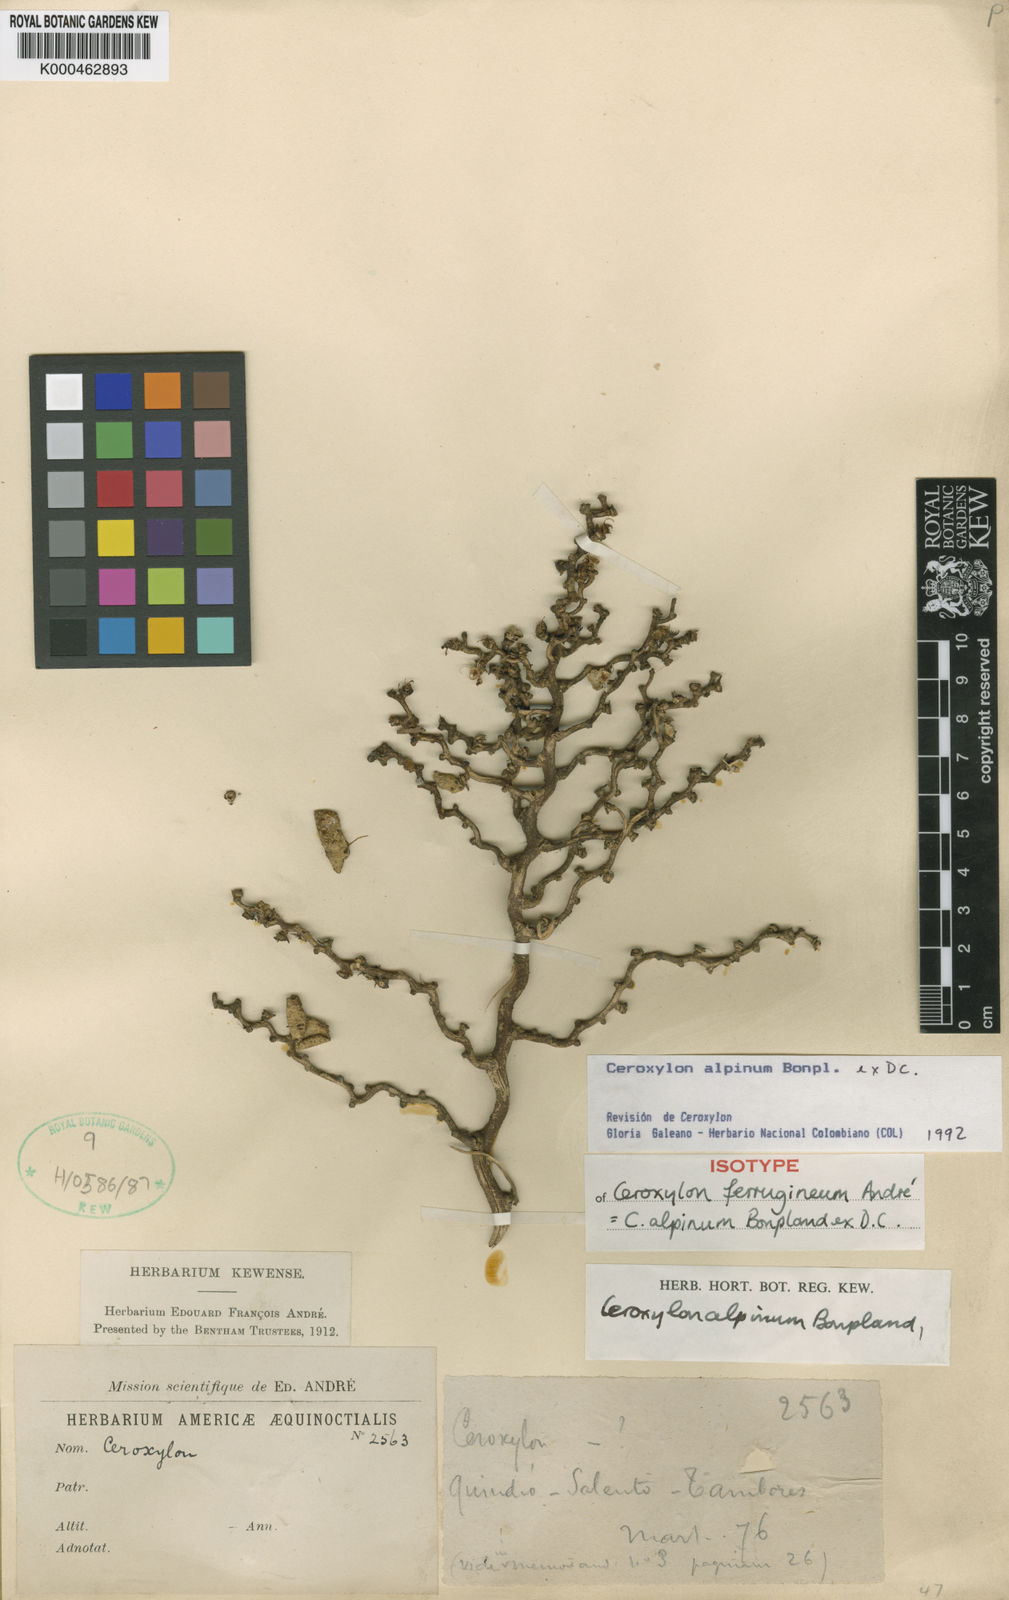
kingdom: Plantae
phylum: Tracheophyta
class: Liliopsida
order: Arecales
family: Arecaceae
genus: Ceroxylon
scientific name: Ceroxylon alpinum
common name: Wax palm
